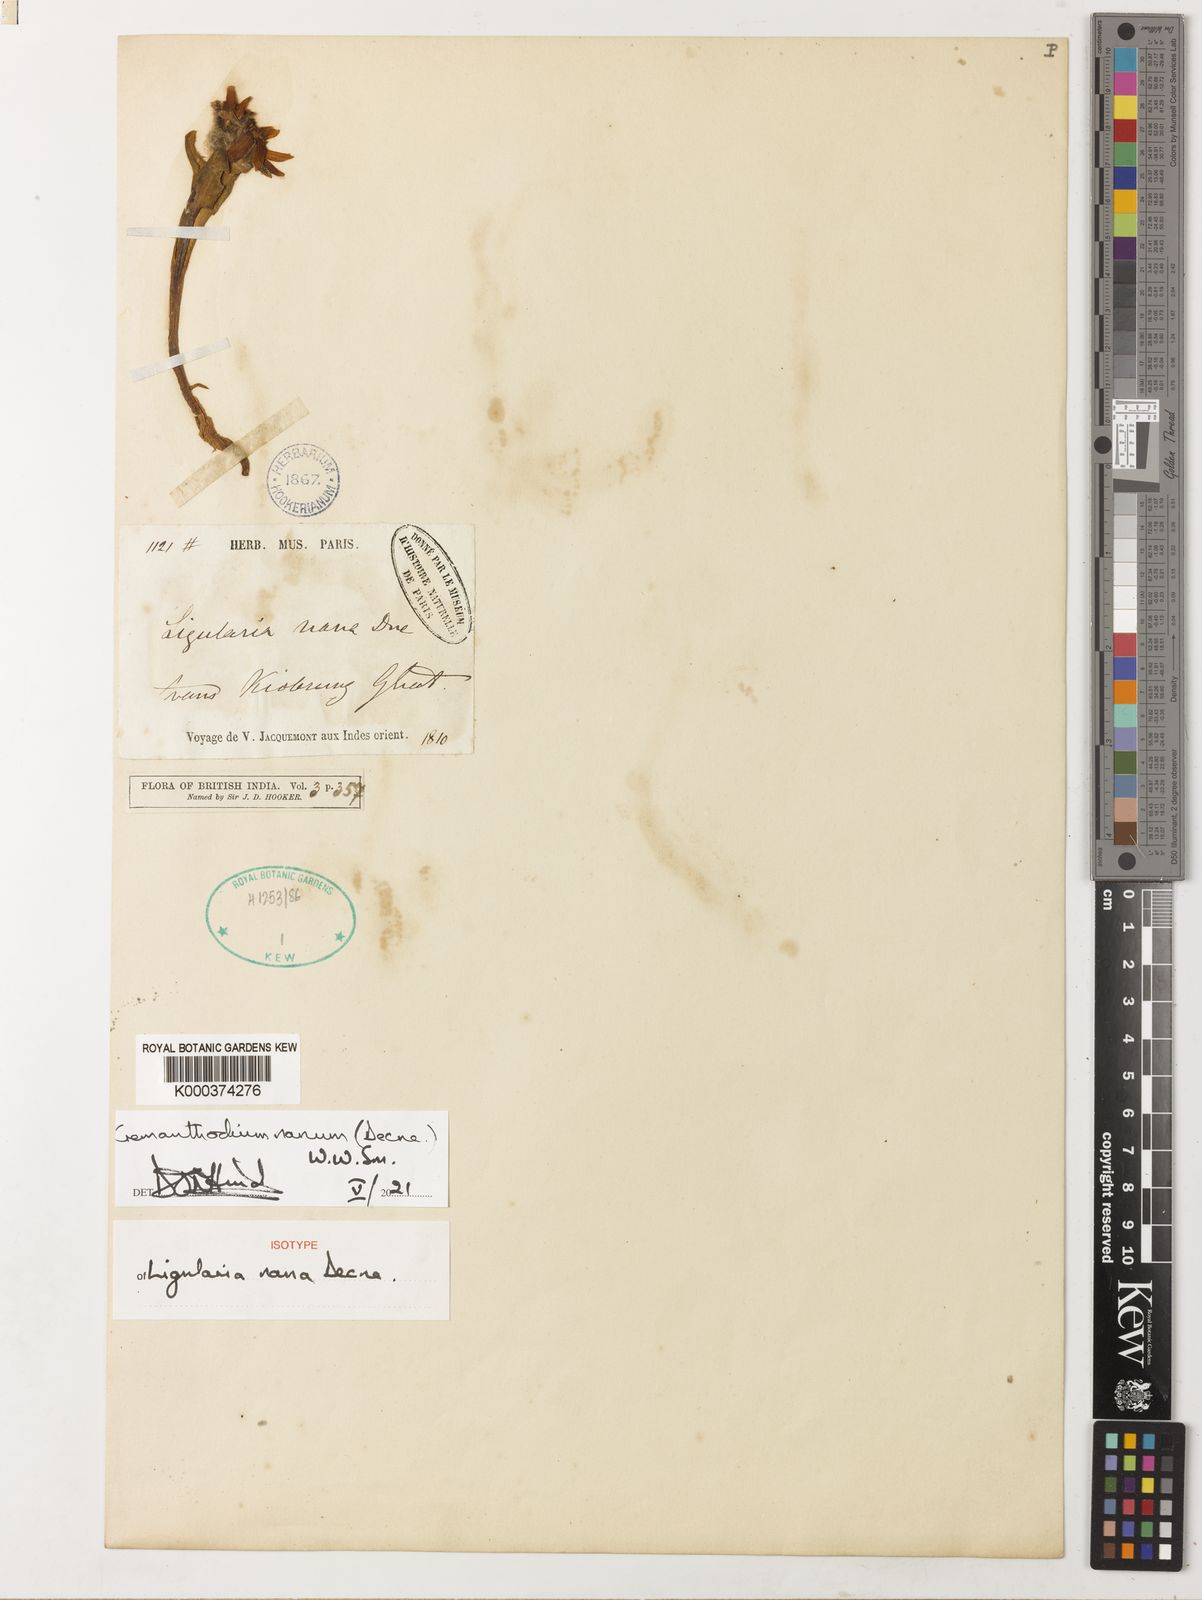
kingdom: Plantae
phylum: Tracheophyta
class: Magnoliopsida
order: Asterales
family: Asteraceae
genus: Cremanthodium
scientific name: Cremanthodium nanum
